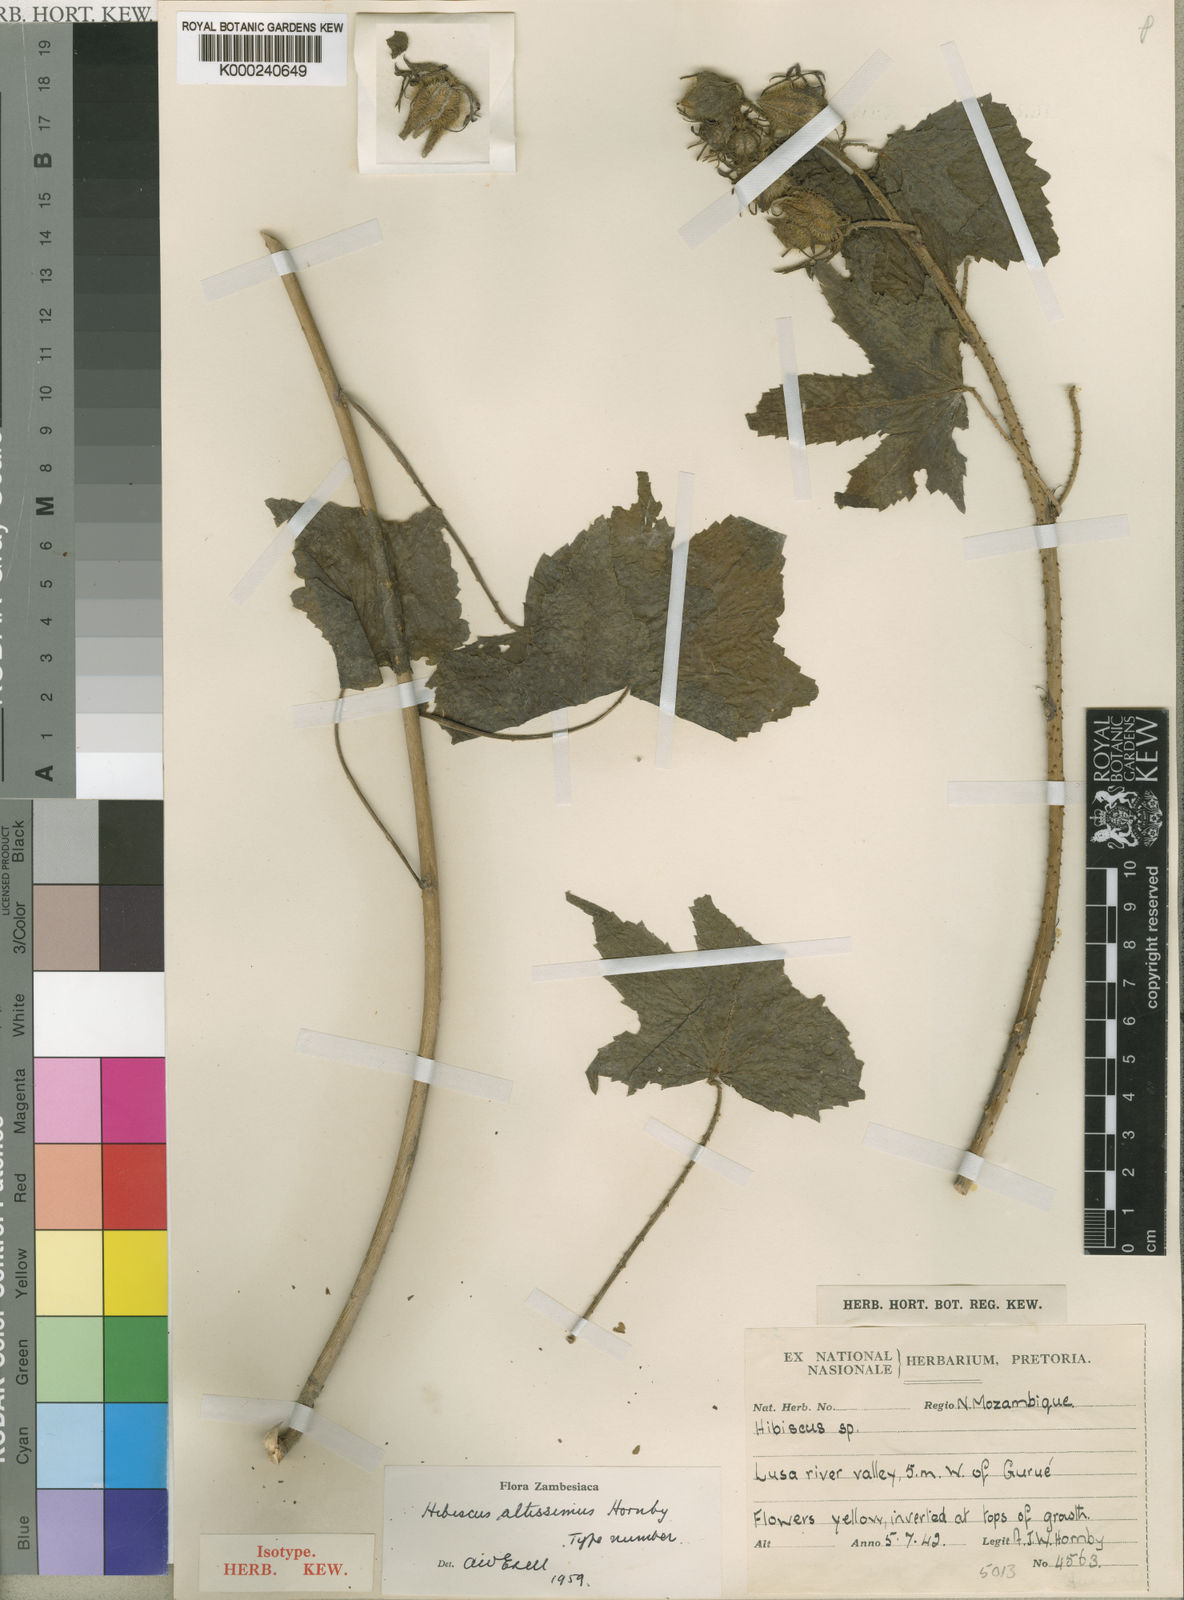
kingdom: Plantae
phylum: Tracheophyta
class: Magnoliopsida
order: Malvales
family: Malvaceae
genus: Hibiscus
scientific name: Hibiscus altissimus
